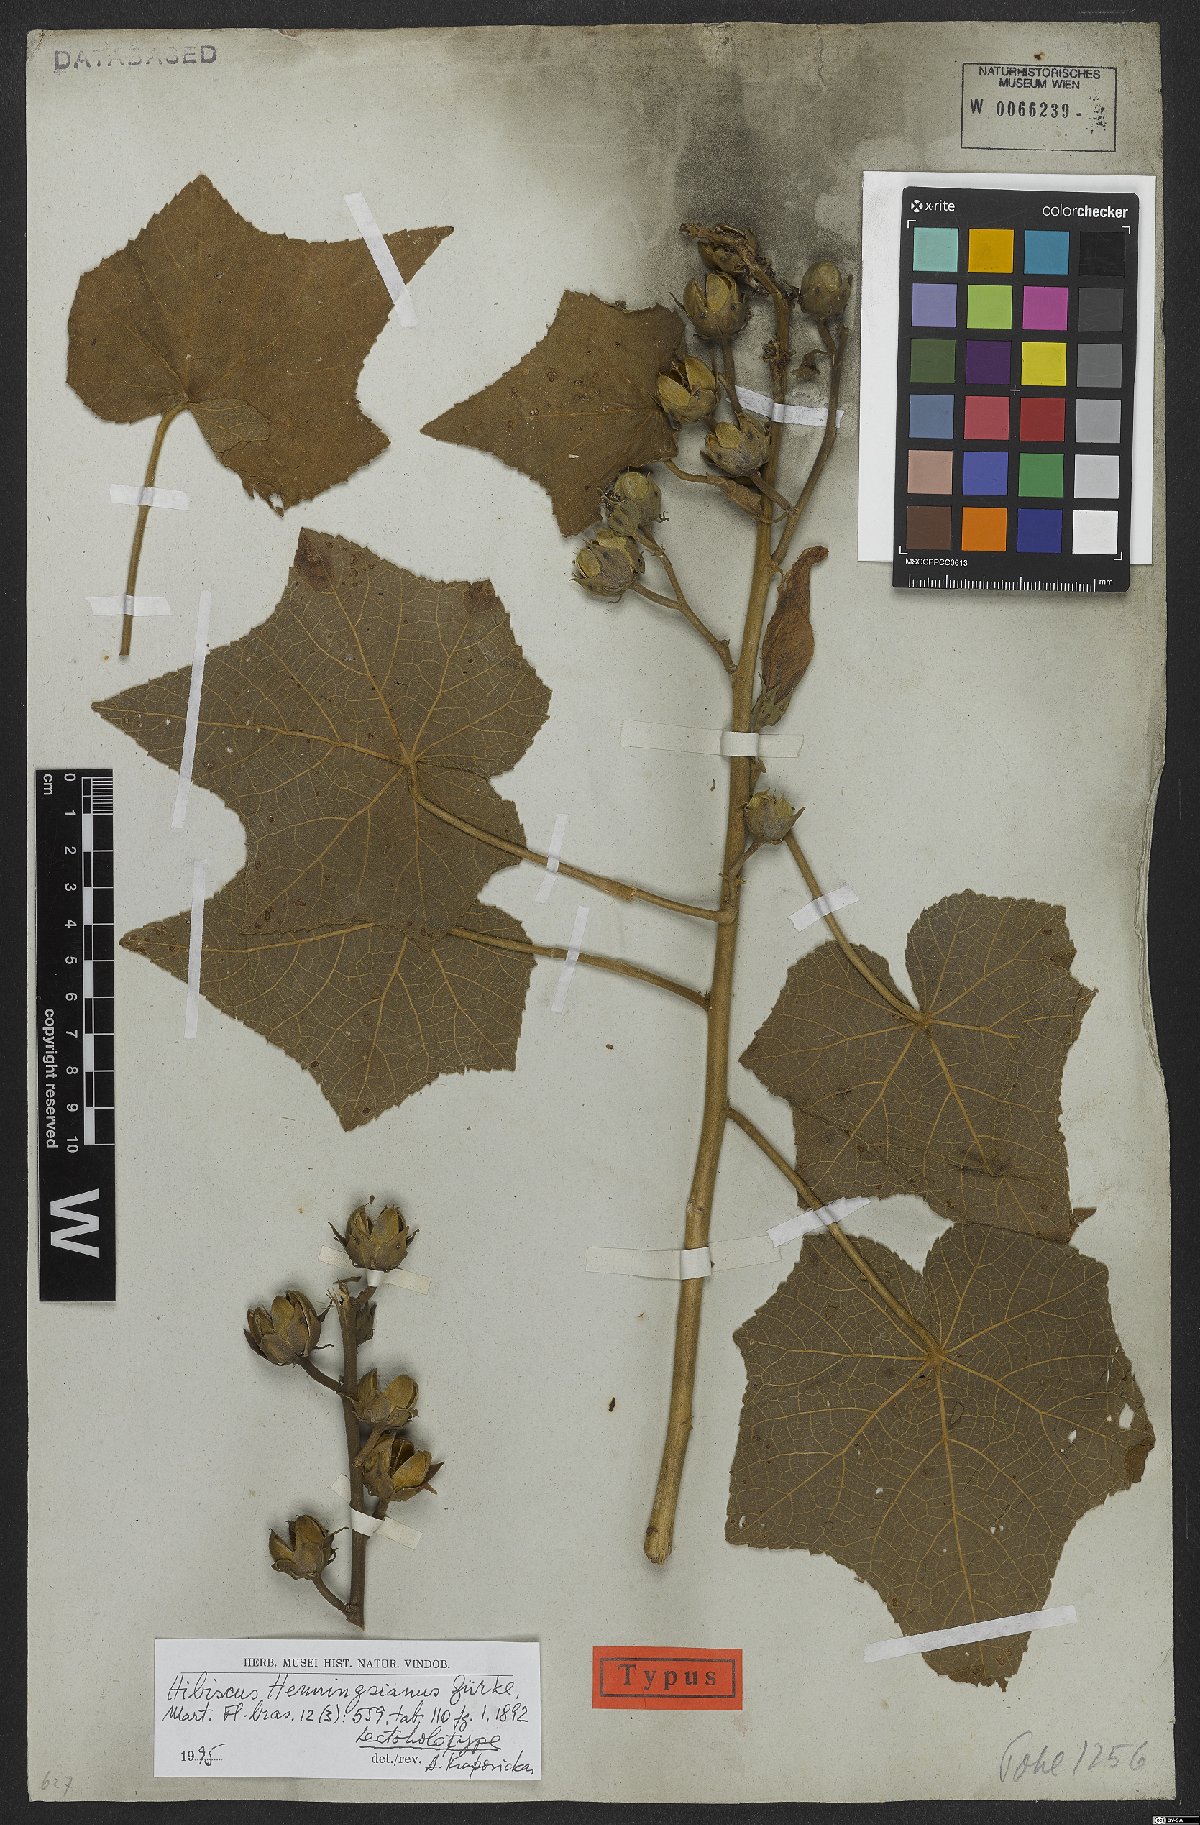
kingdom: Plantae
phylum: Tracheophyta
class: Magnoliopsida
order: Malvales
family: Malvaceae
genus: Hibiscus
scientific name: Hibiscus henningsianus
